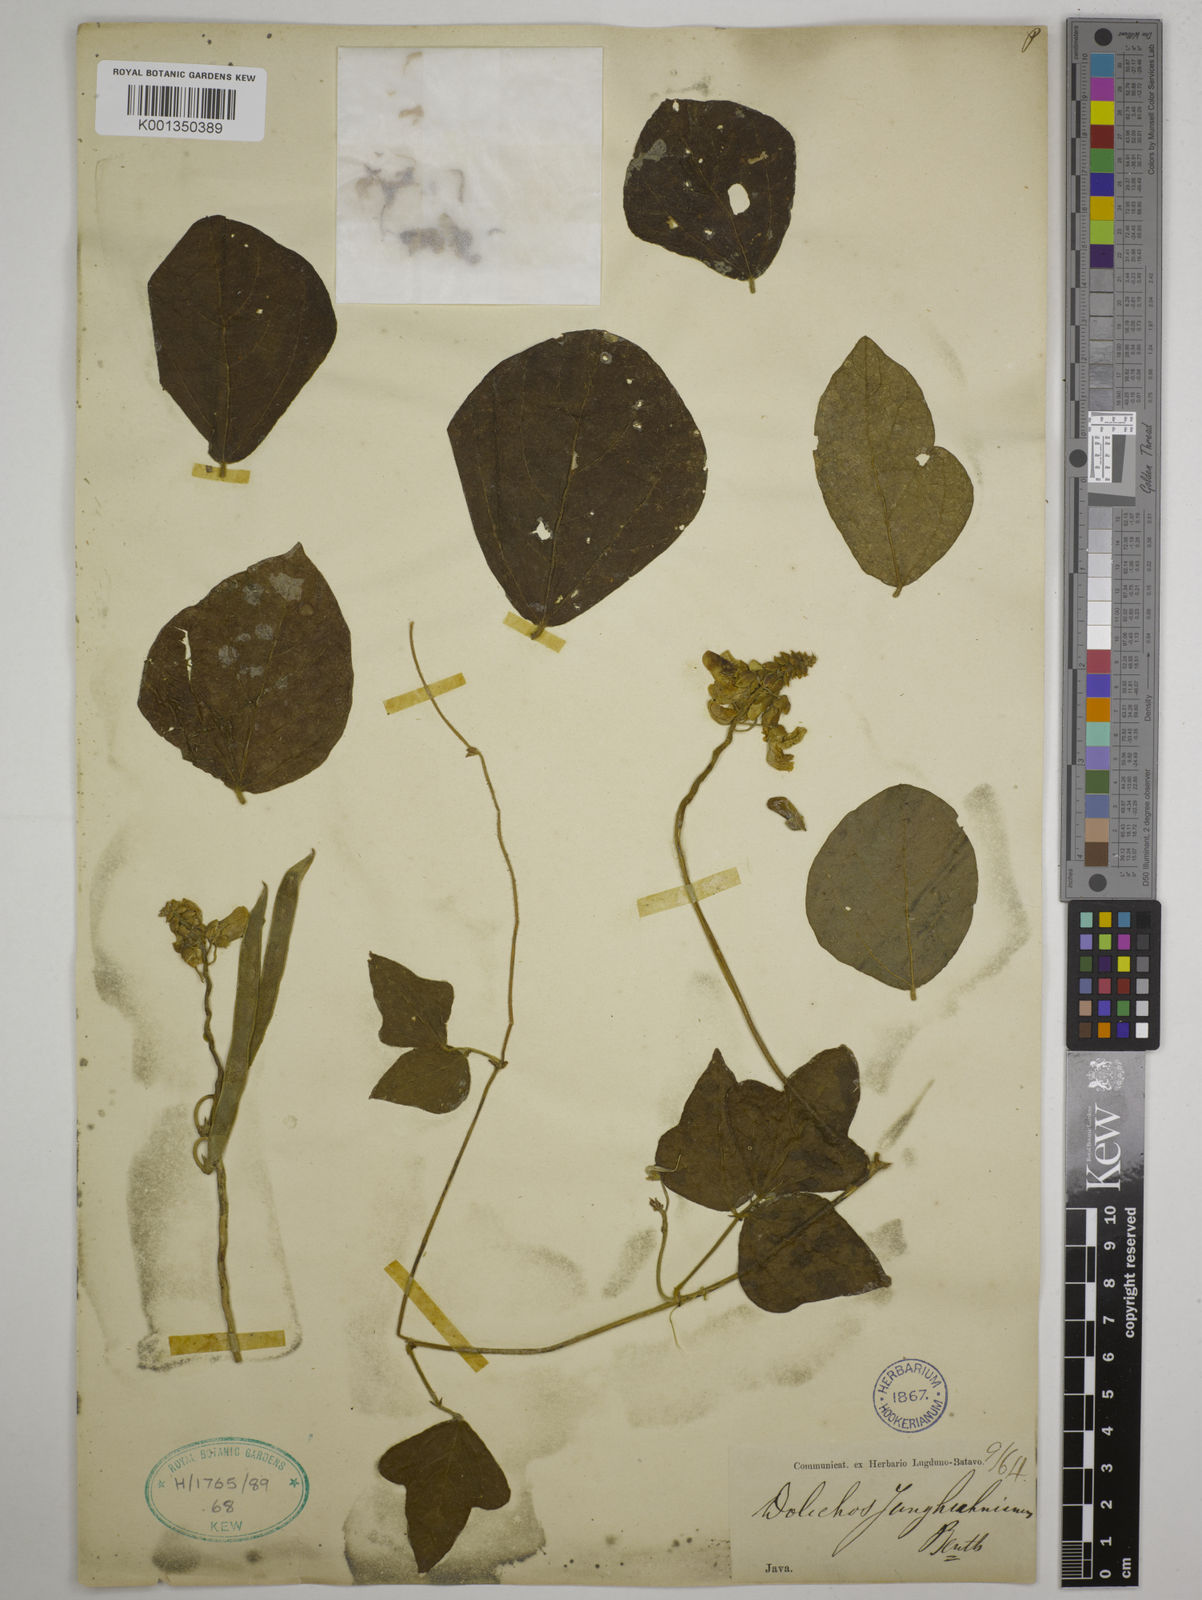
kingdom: Plantae
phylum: Tracheophyta
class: Magnoliopsida
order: Fabales
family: Fabaceae
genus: Dolichos
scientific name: Dolichos junghuhnianus
